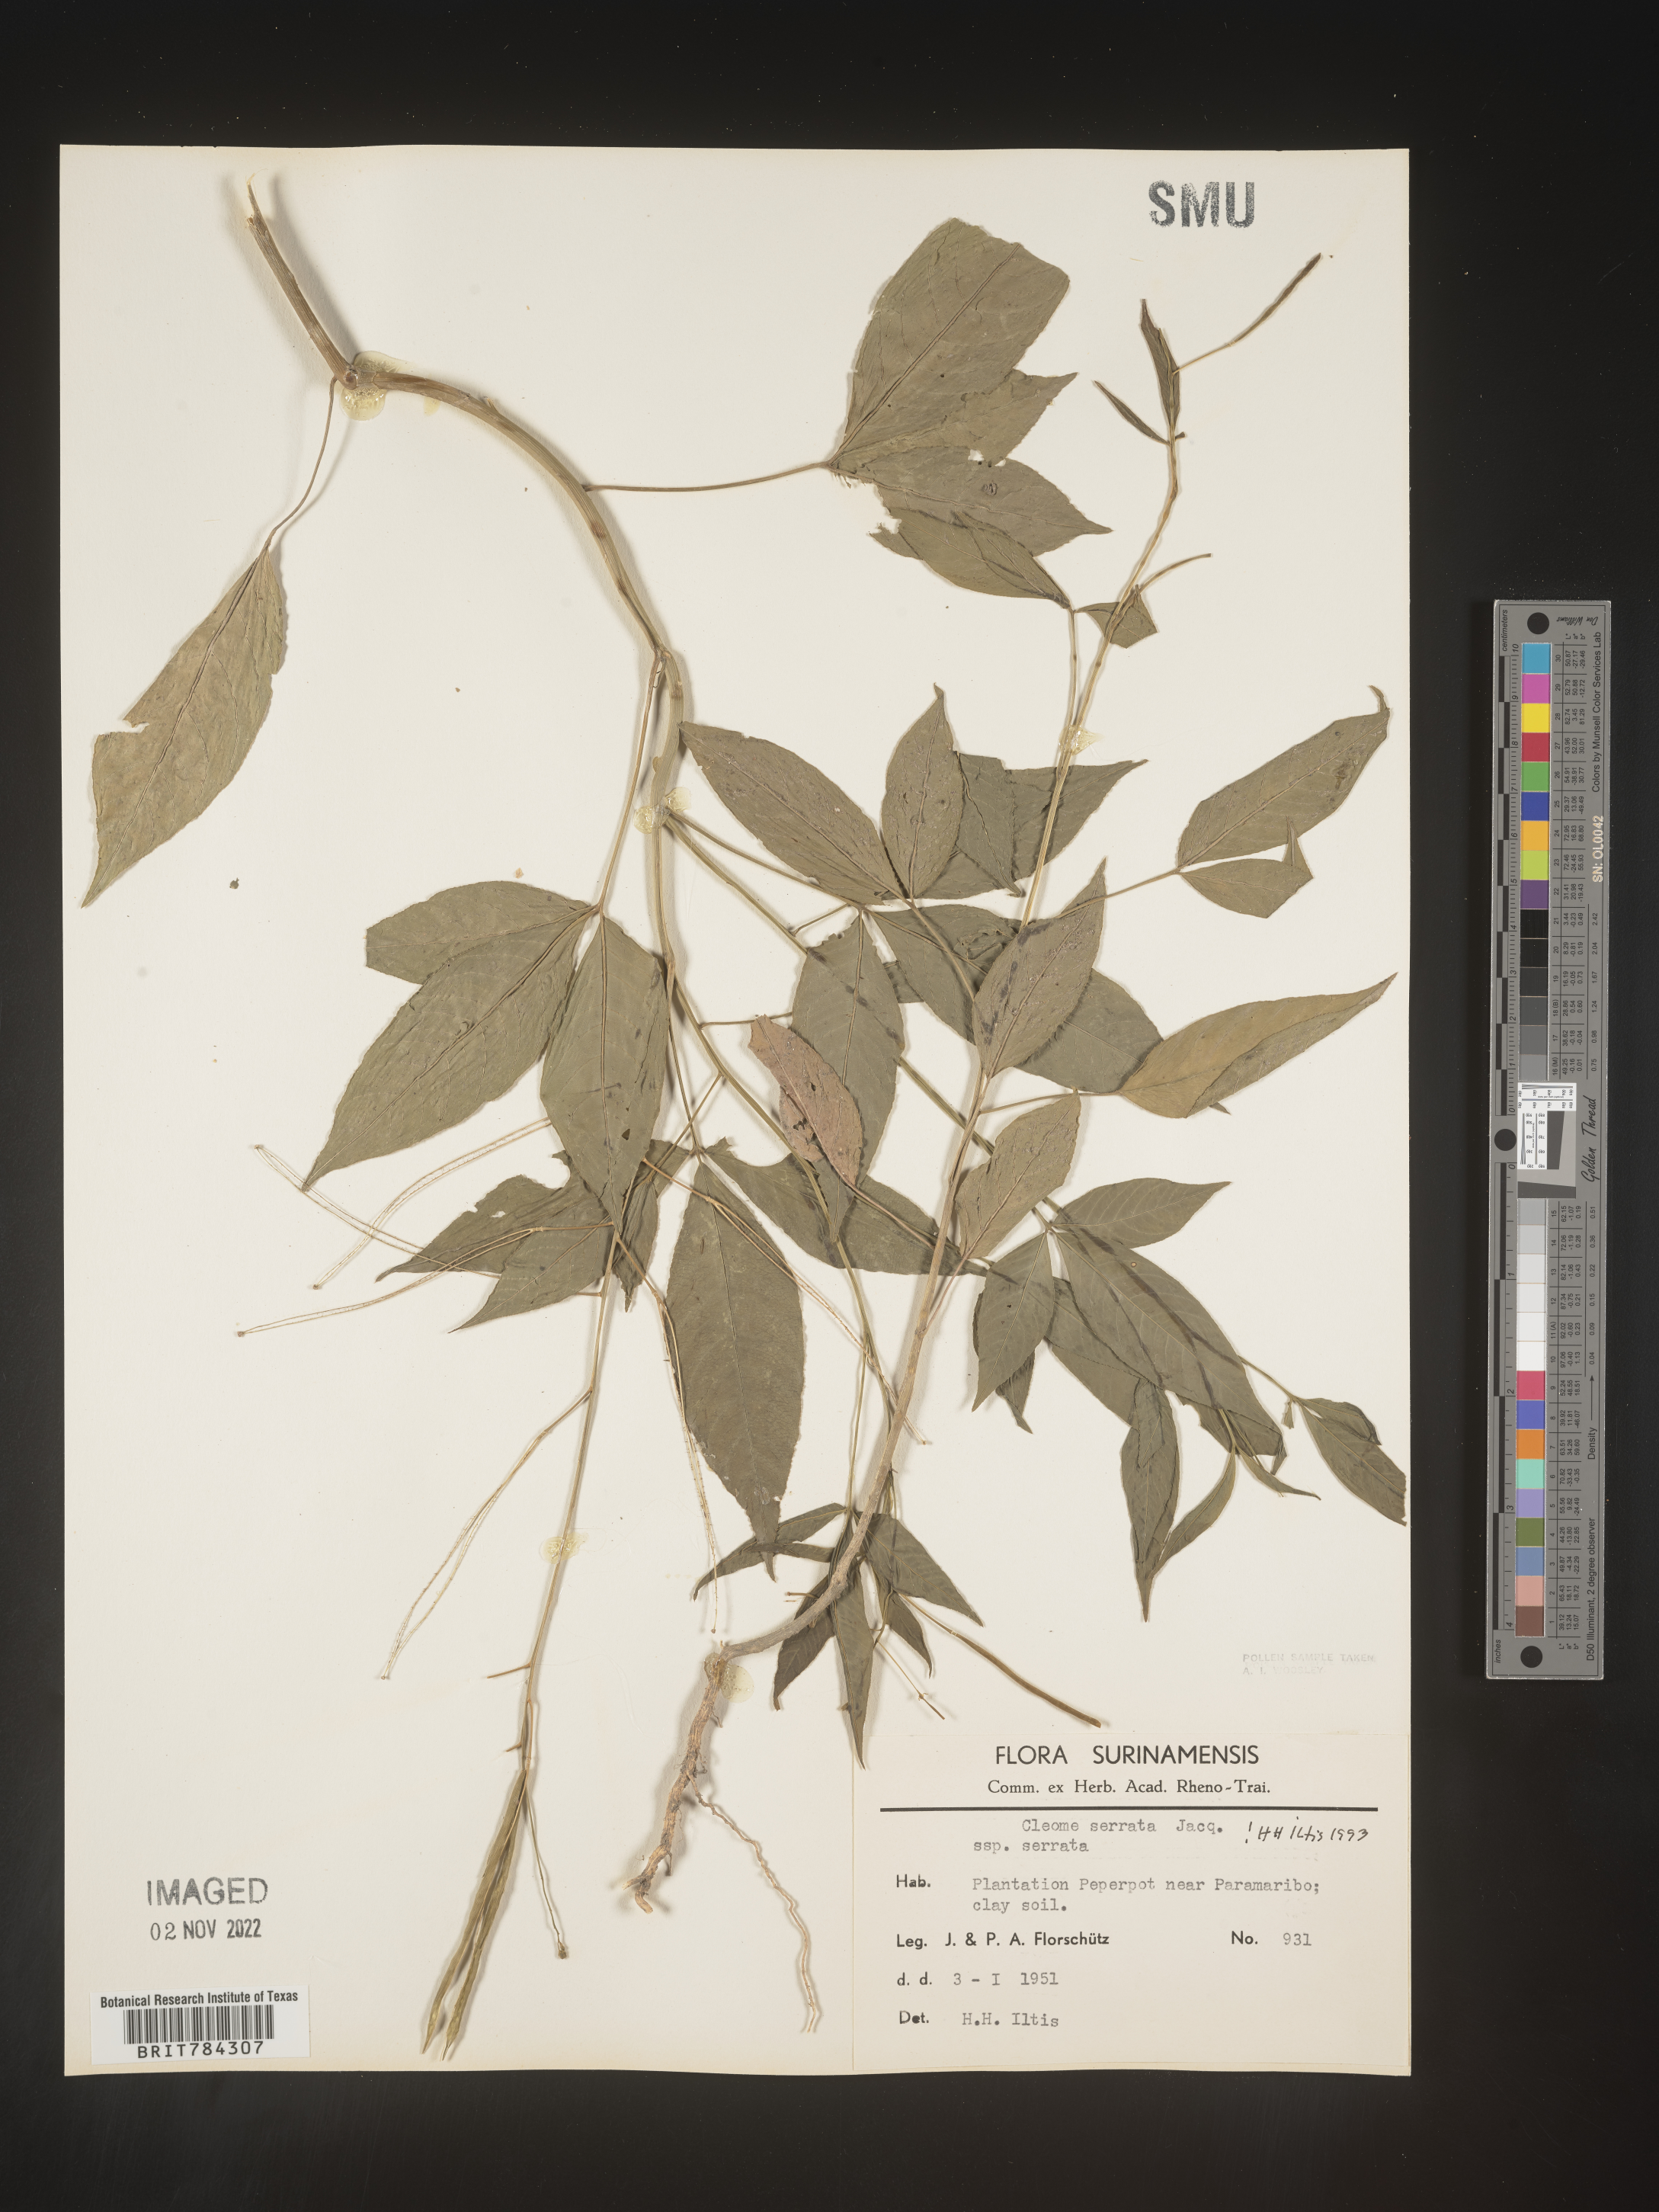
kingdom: Plantae
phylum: Tracheophyta
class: Magnoliopsida
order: Brassicales
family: Cleomaceae
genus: Cleome
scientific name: Cleome
